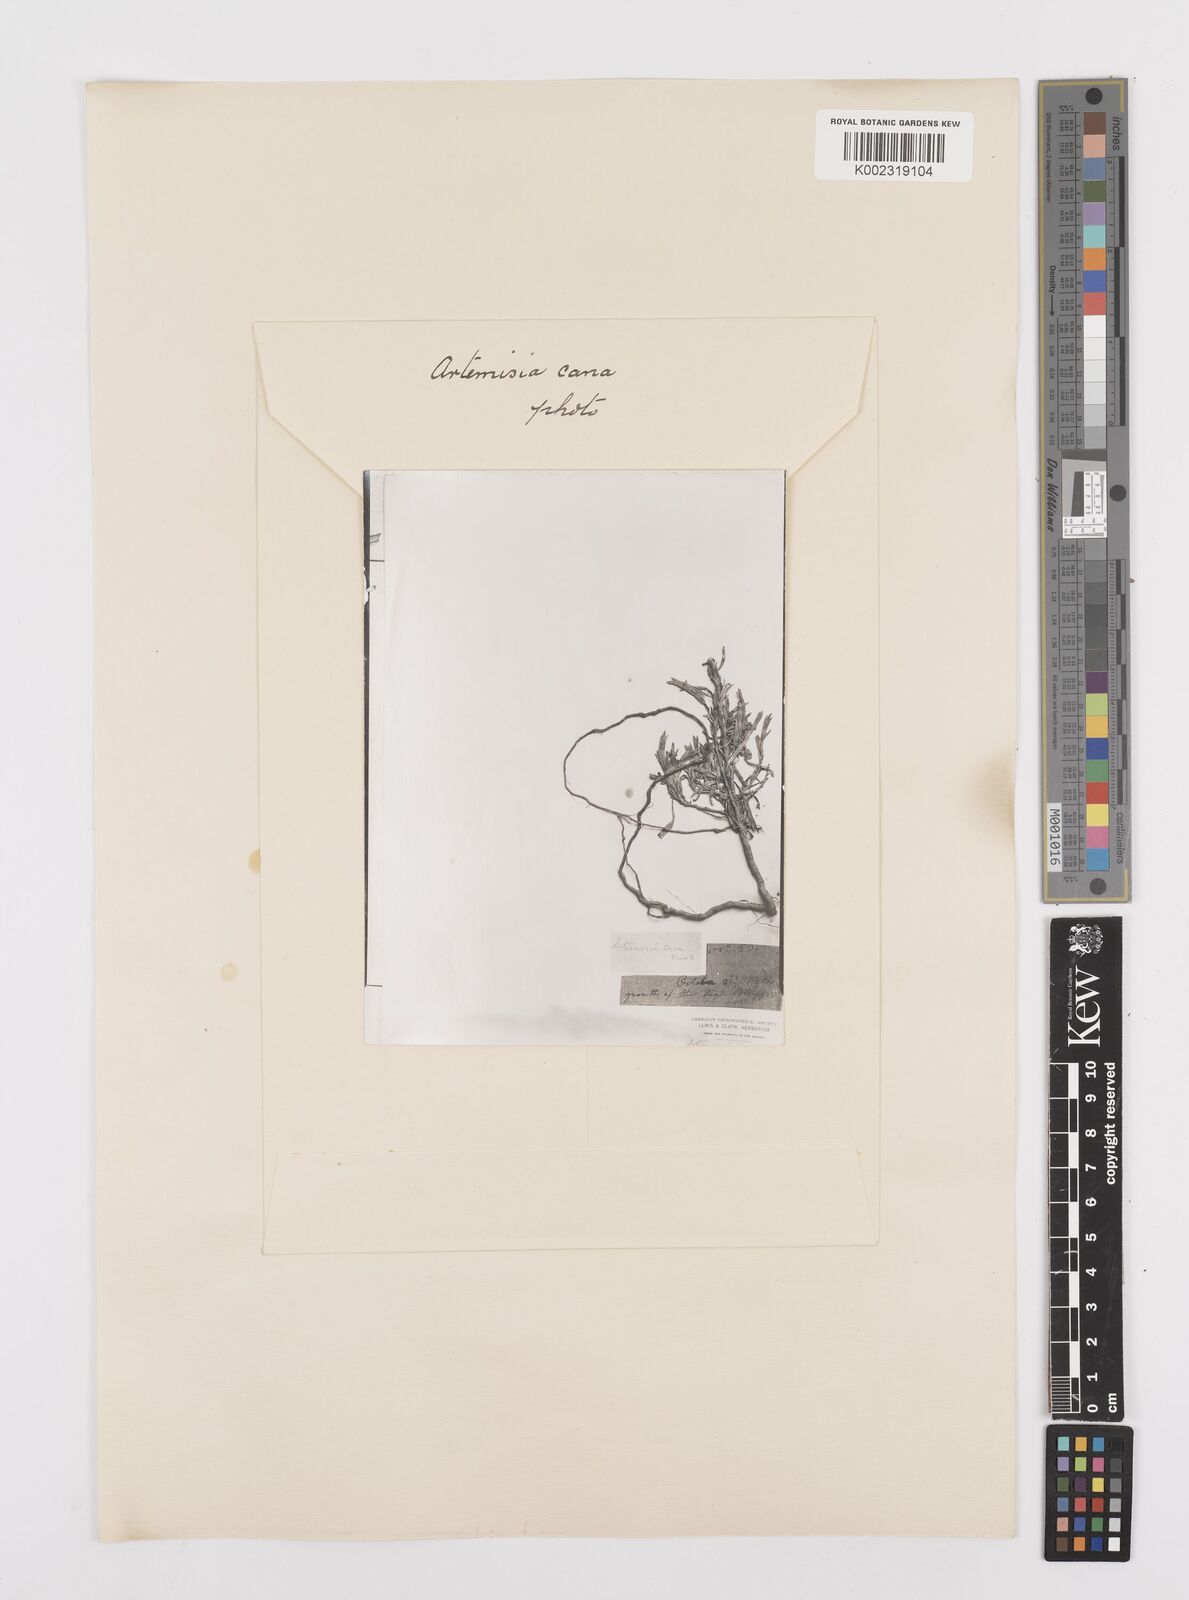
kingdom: Plantae
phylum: Tracheophyta
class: Magnoliopsida
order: Asterales
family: Asteraceae
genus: Artemisia
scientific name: Artemisia cana
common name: Silver sagebrush
